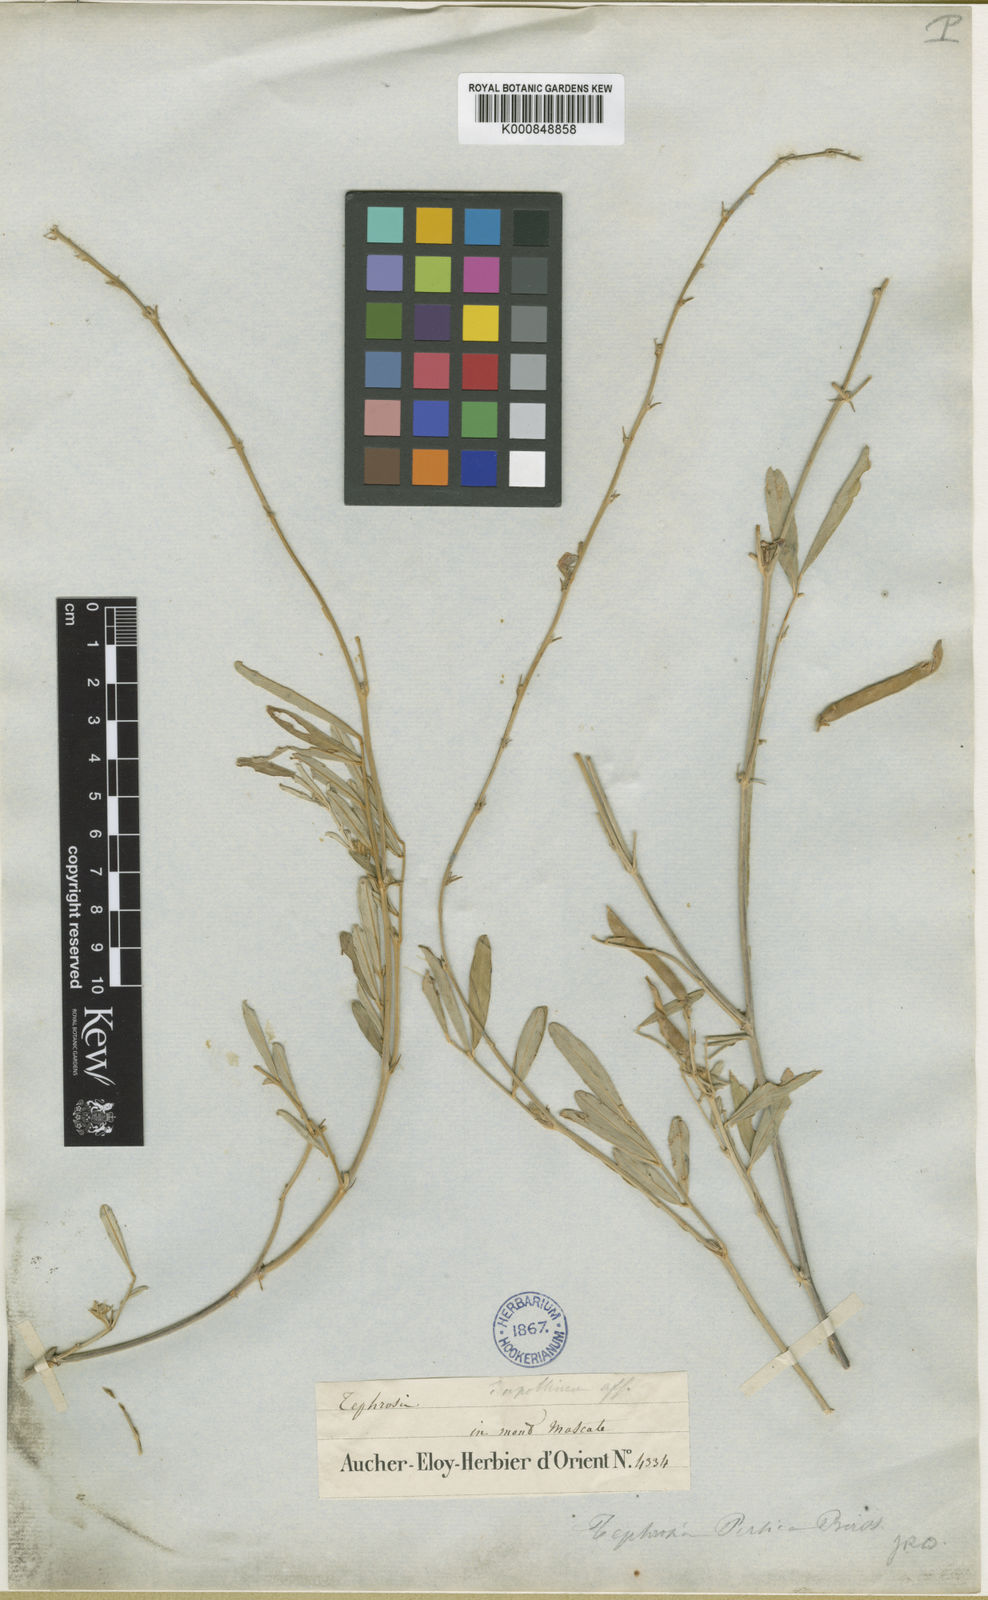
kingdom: Plantae
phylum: Tracheophyta
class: Magnoliopsida
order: Fabales
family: Fabaceae
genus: Tephrosia
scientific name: Tephrosia persica
